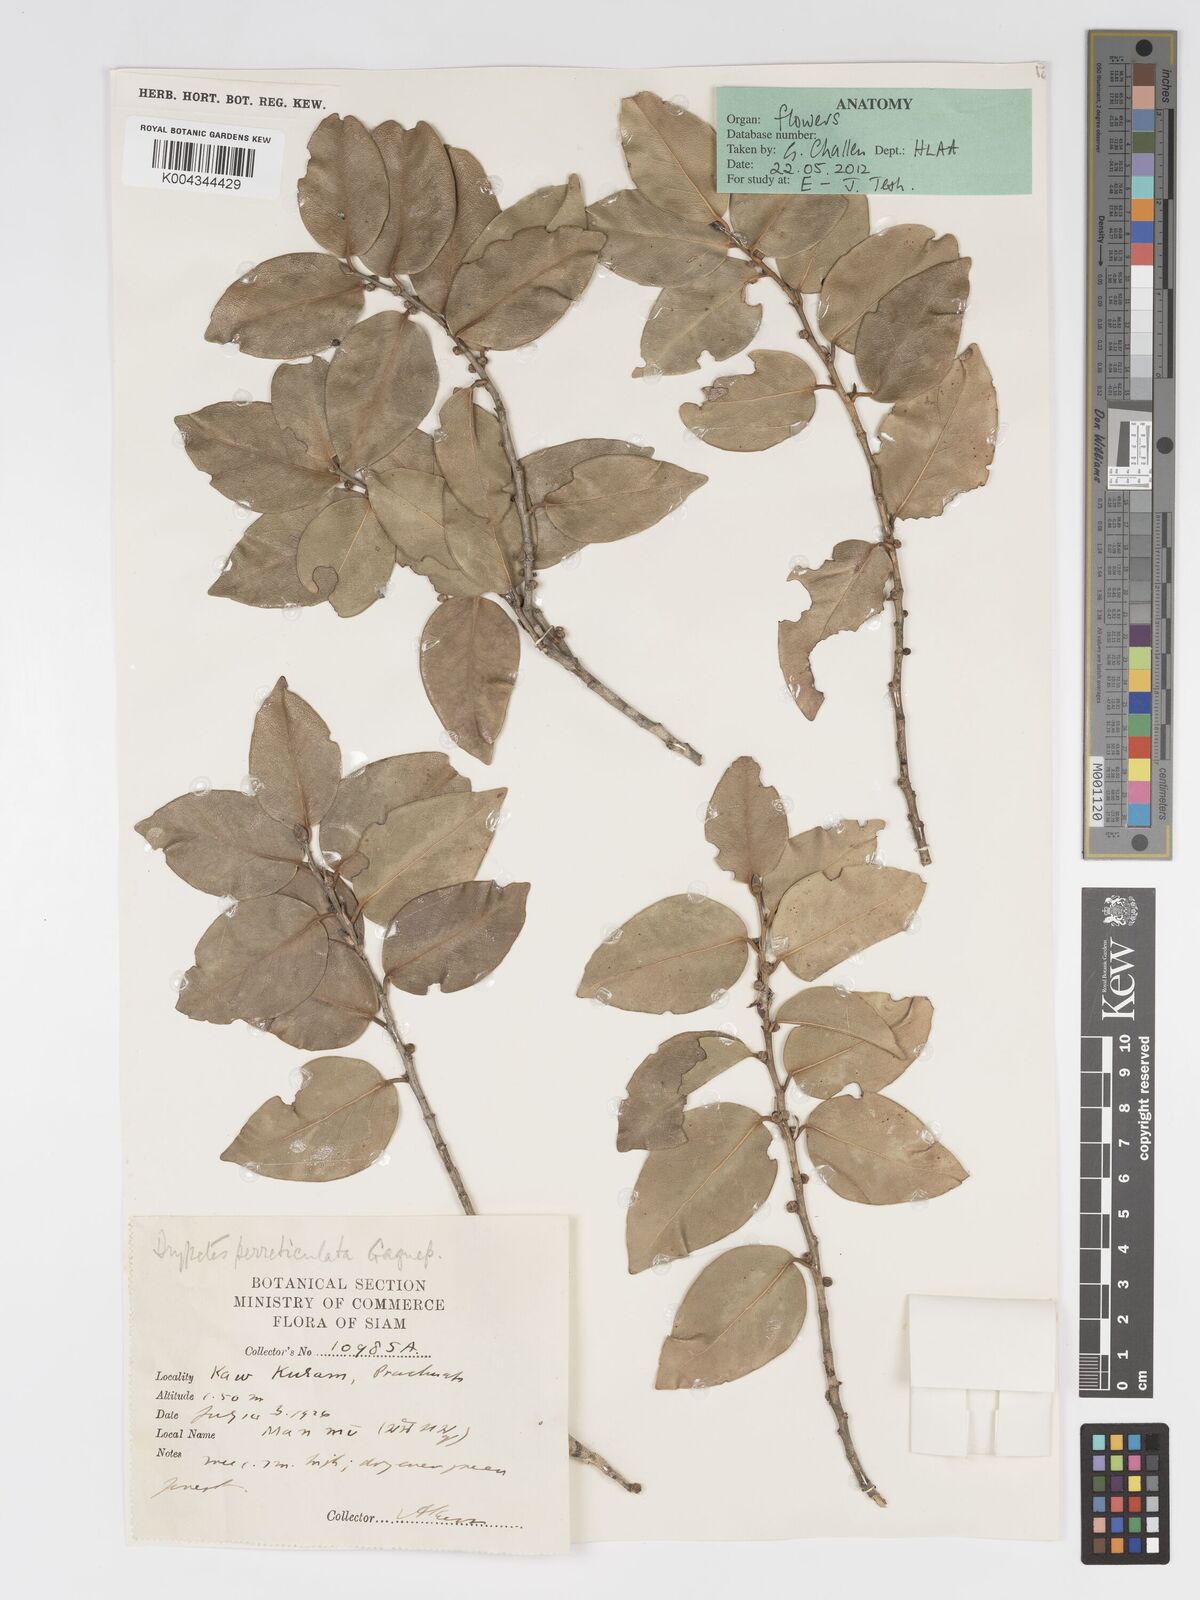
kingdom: Plantae
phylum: Tracheophyta
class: Magnoliopsida
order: Malpighiales
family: Putranjivaceae
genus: Drypetes
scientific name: Drypetes perreticulata
